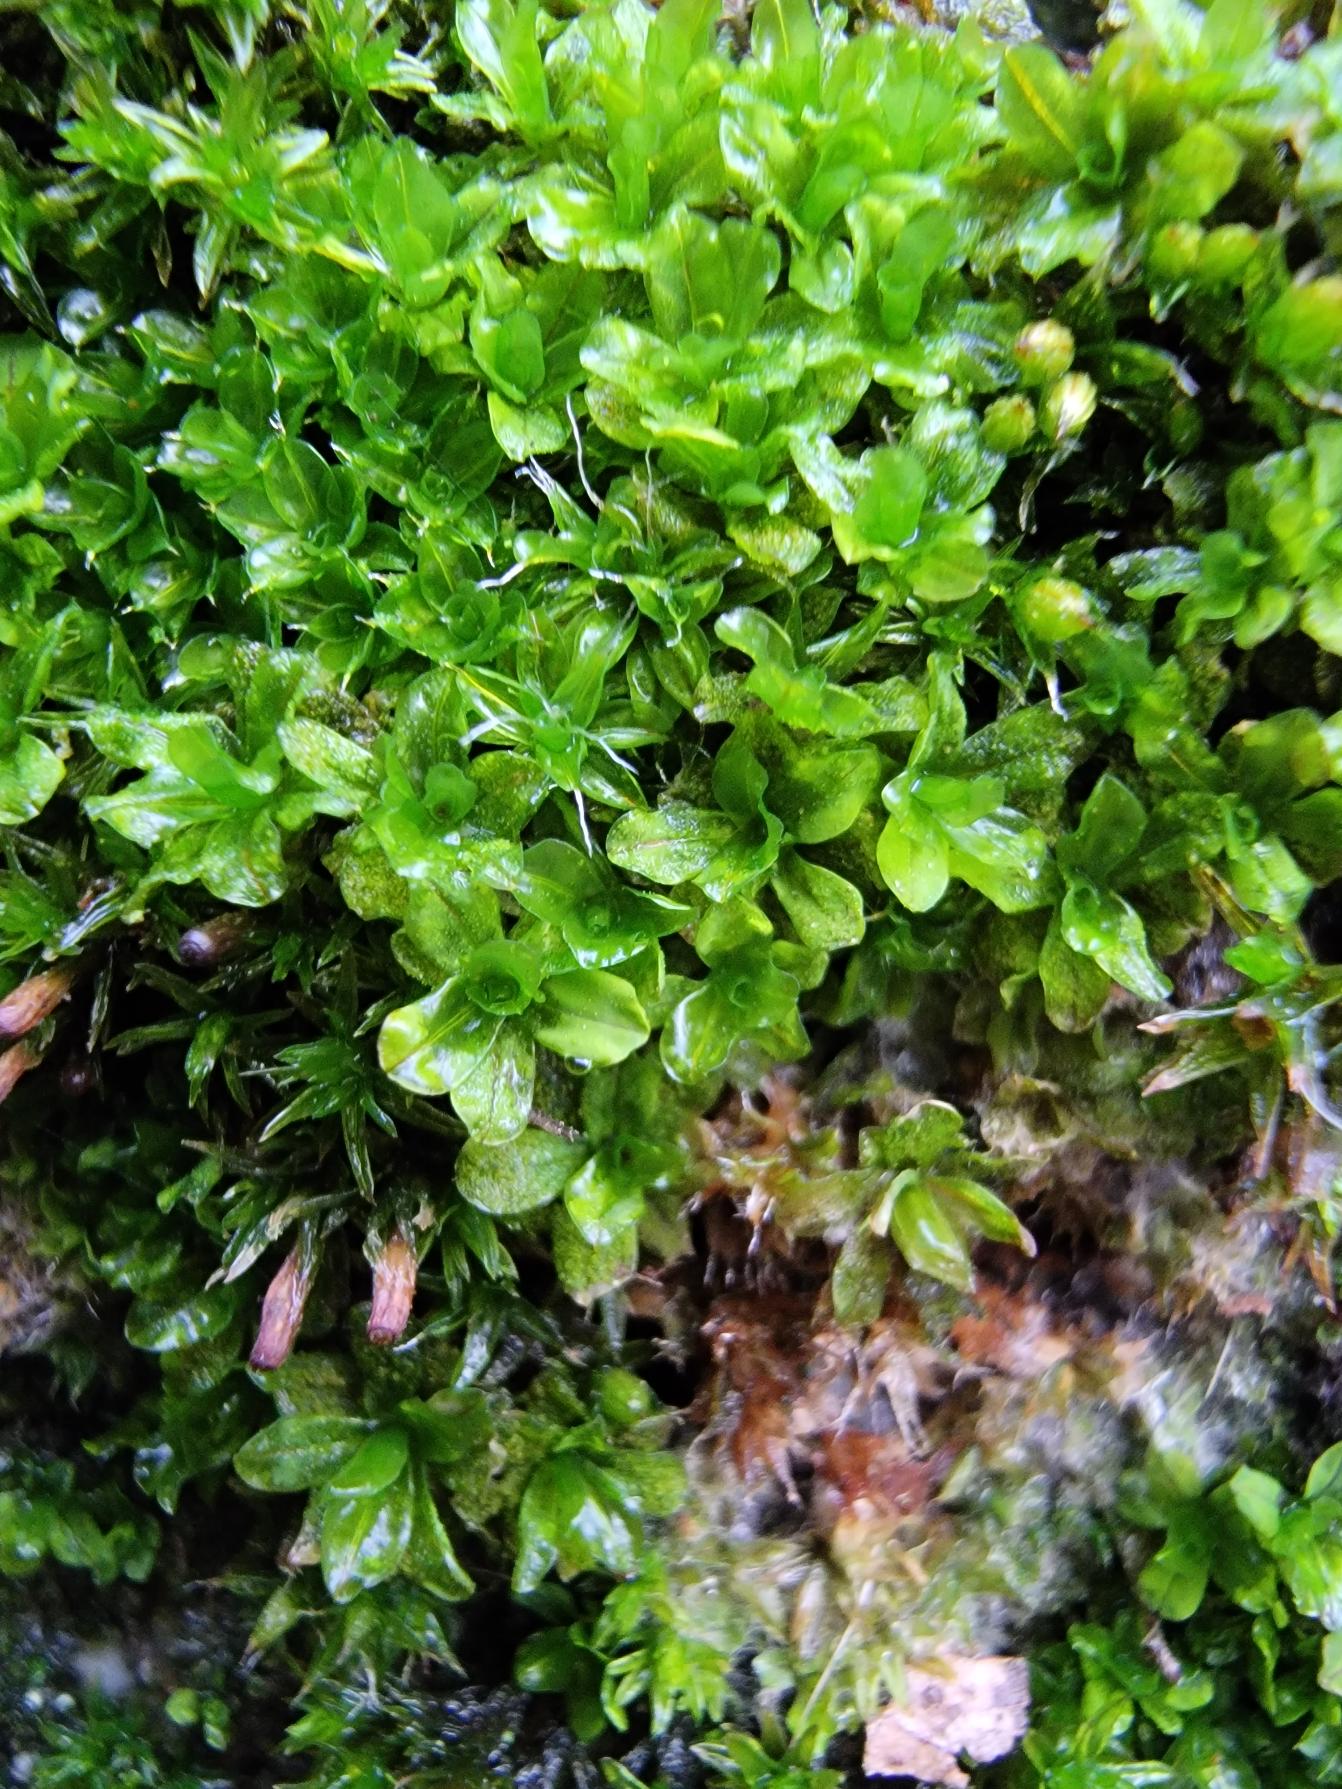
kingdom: Plantae
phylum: Bryophyta
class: Bryopsida
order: Pottiales
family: Pottiaceae
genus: Syntrichia
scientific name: Syntrichia latifolia
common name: Butbladet hårstjerne
